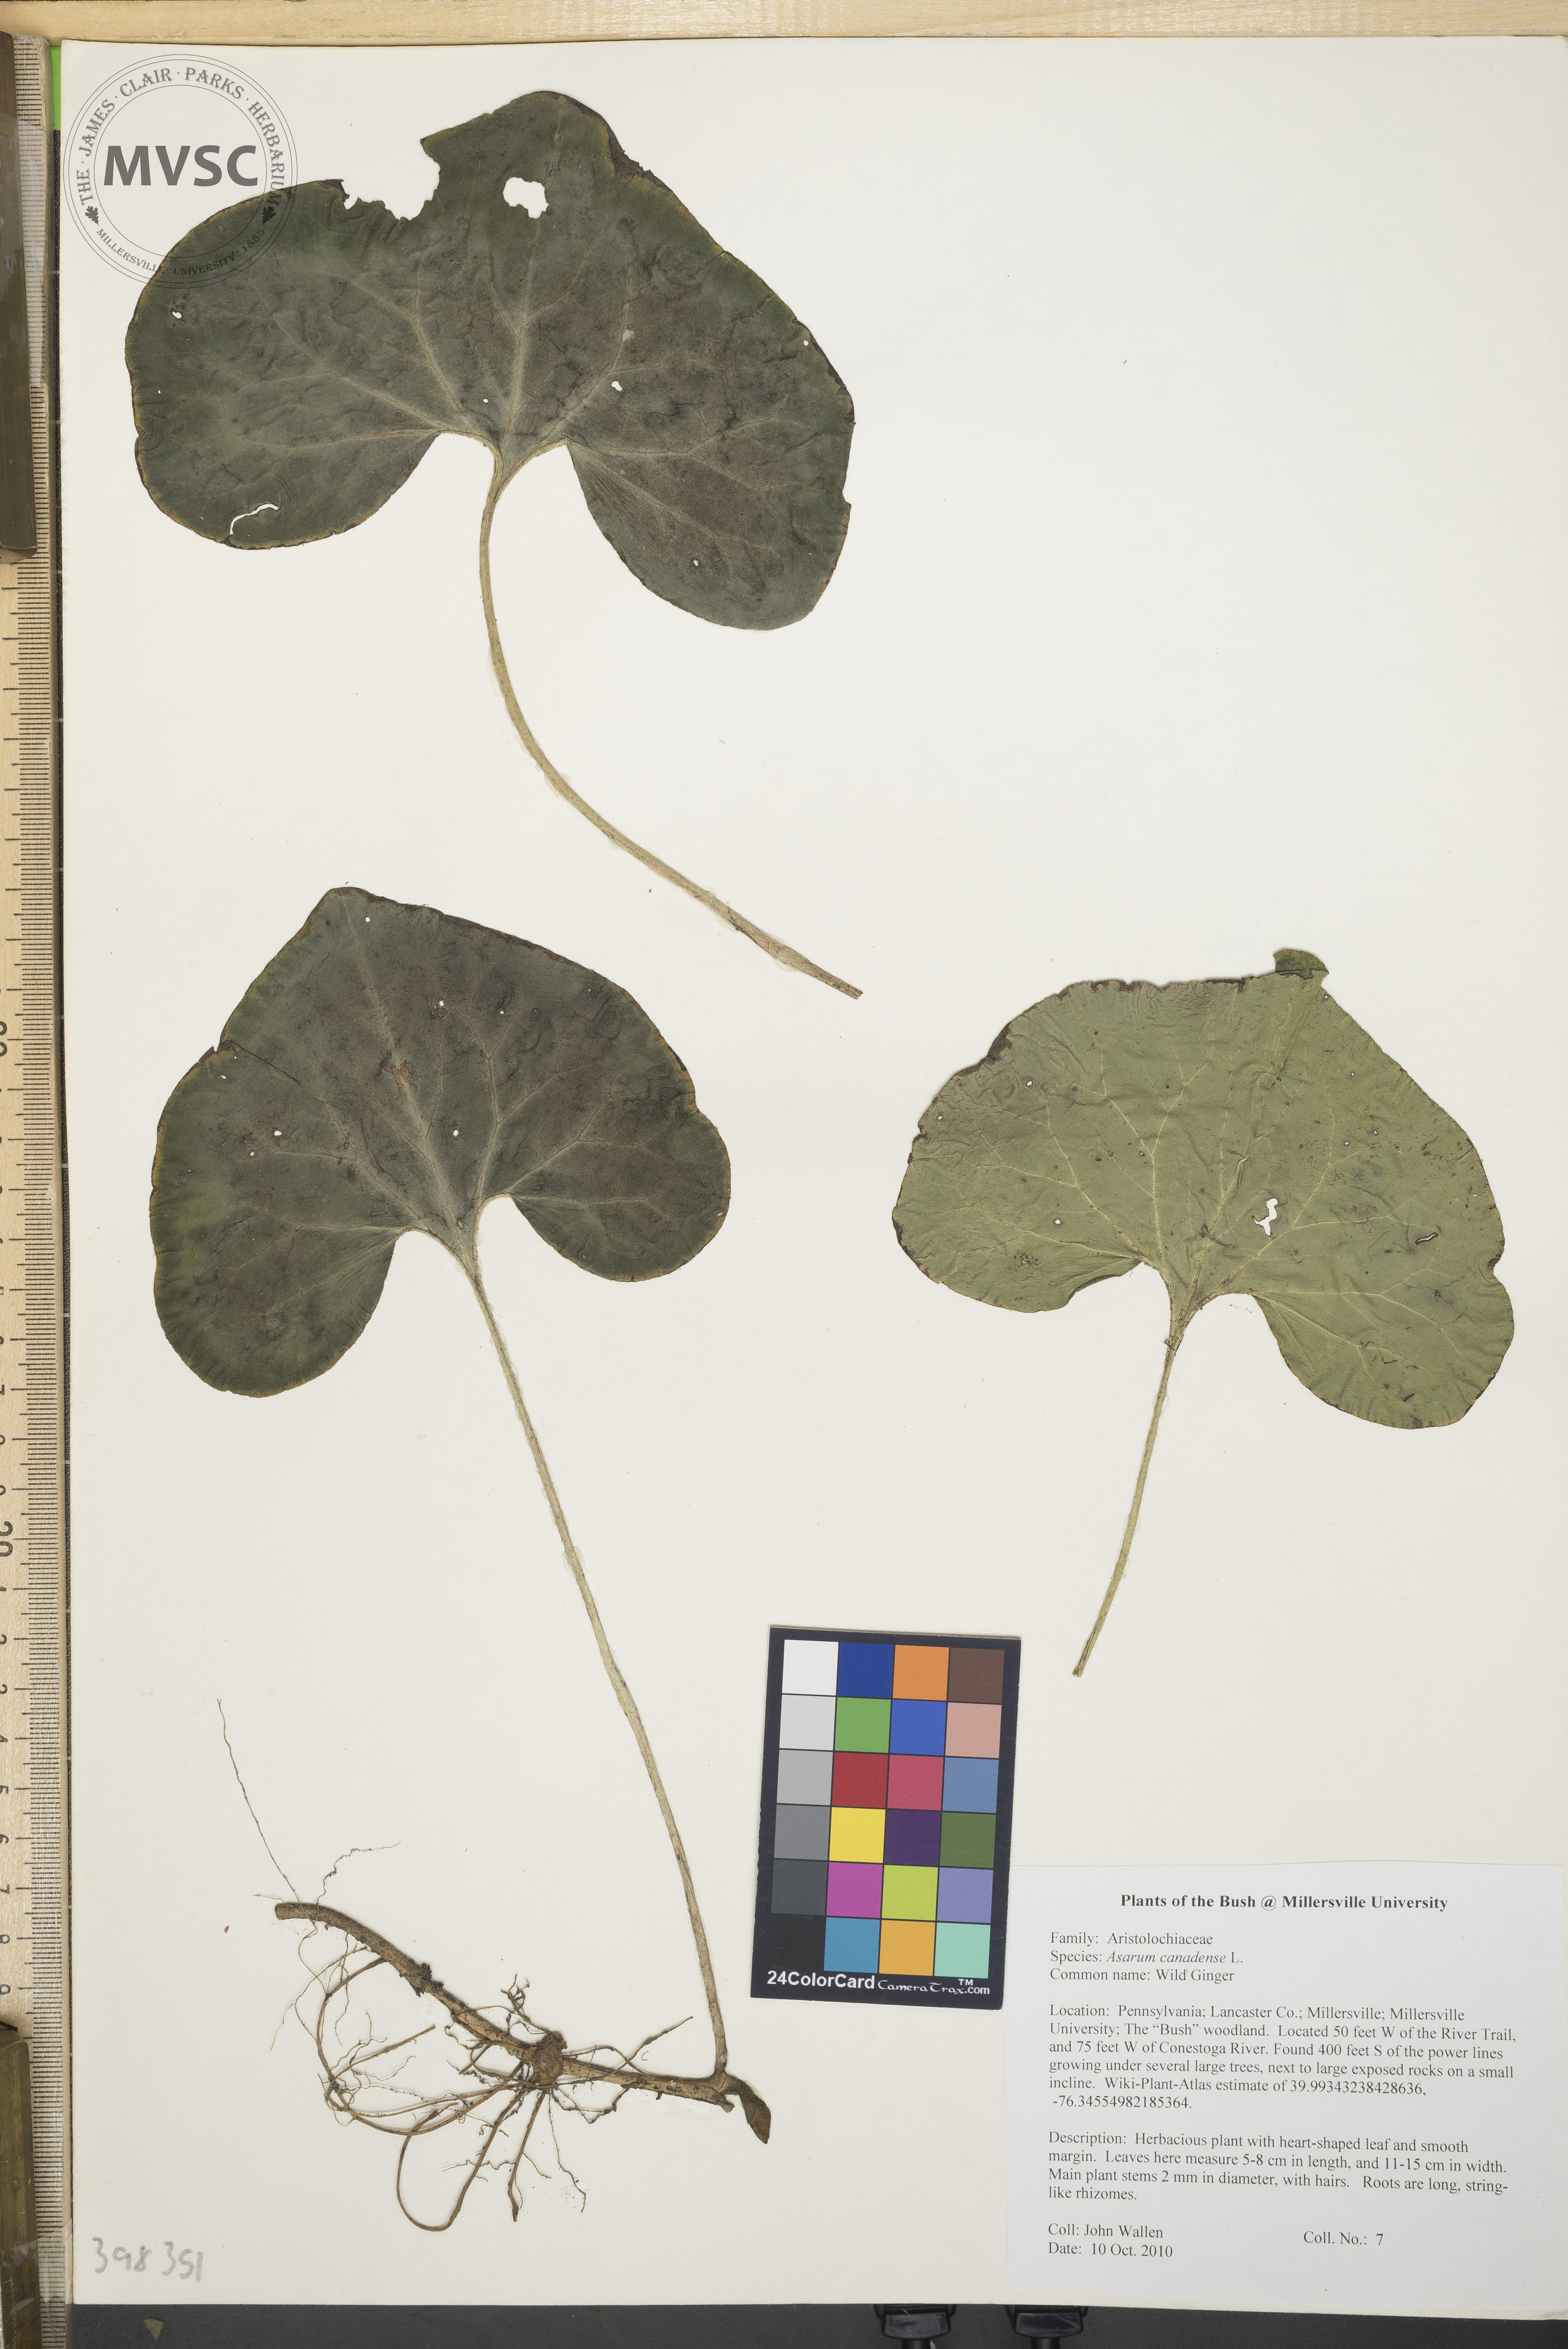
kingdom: Plantae
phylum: Tracheophyta
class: Magnoliopsida
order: Piperales
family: Aristolochiaceae
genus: Asarum
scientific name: Asarum canadense
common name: Wild ginger
